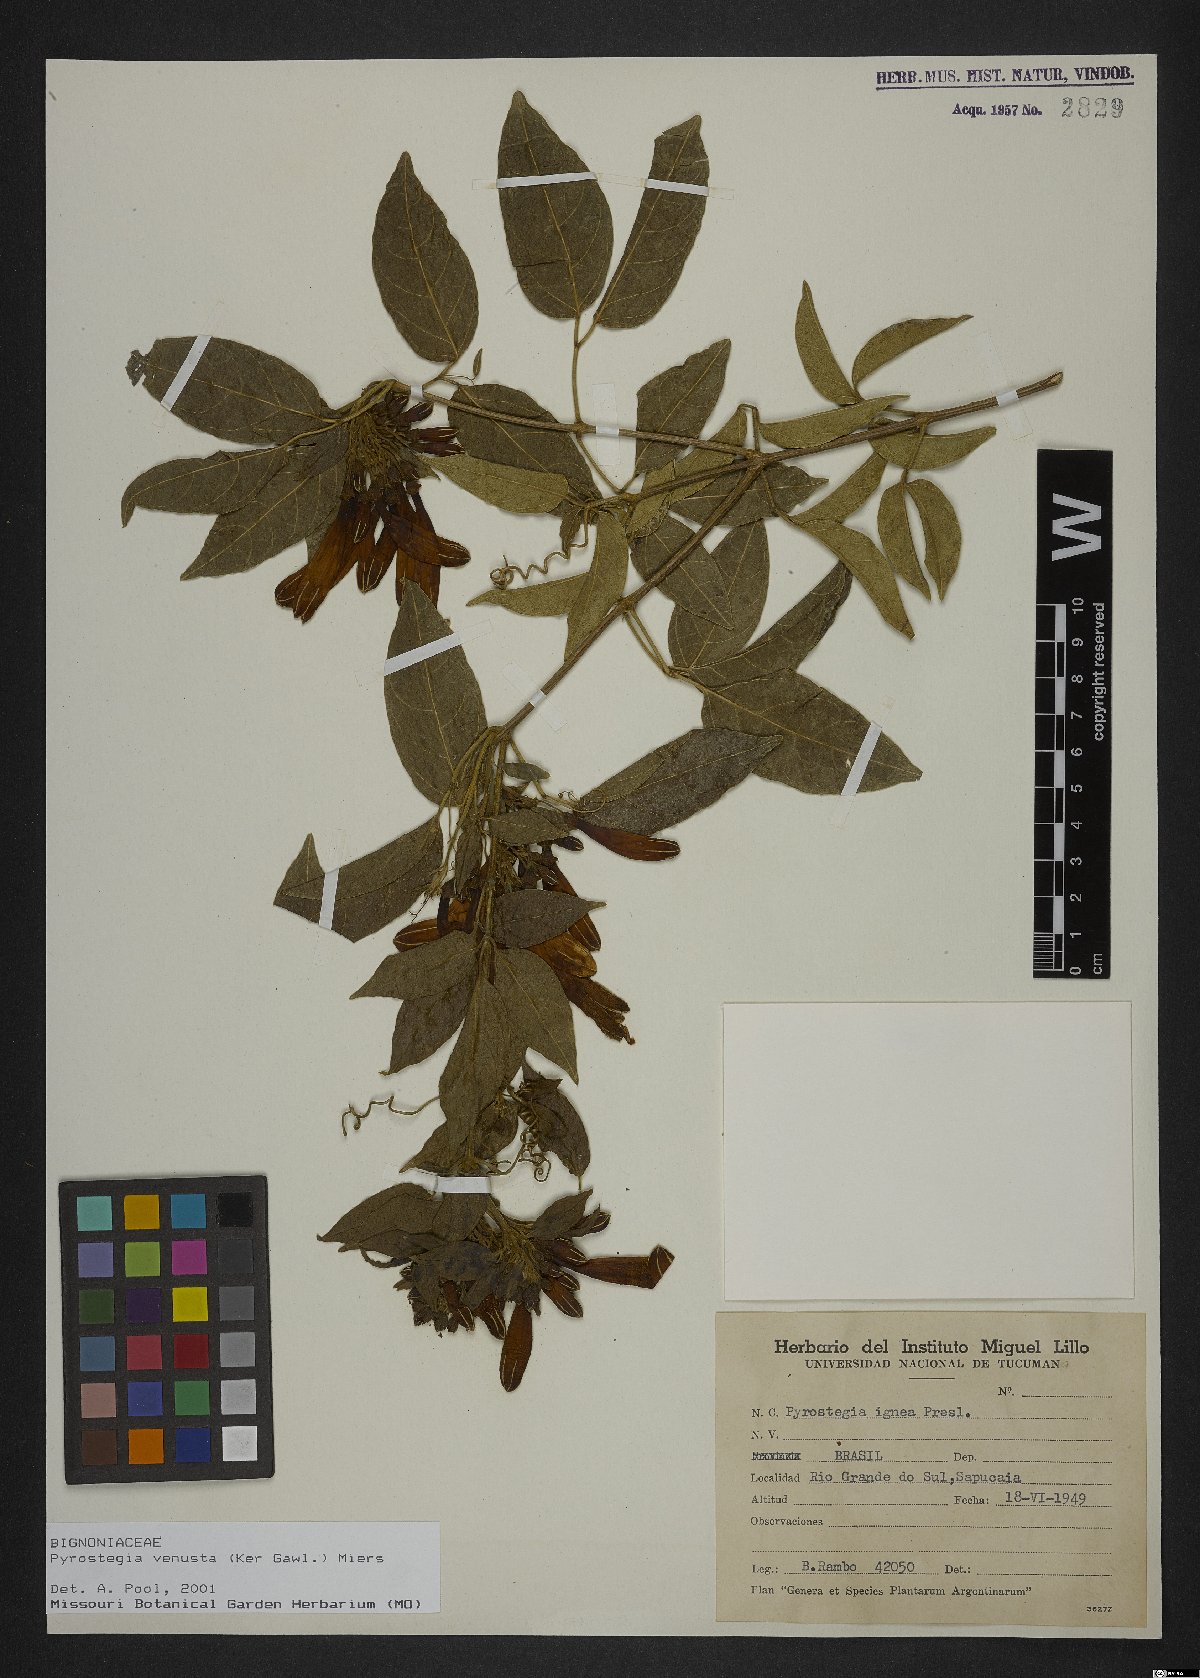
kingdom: Plantae
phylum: Tracheophyta
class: Magnoliopsida
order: Lamiales
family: Bignoniaceae
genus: Pyrostegia
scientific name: Pyrostegia venusta
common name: Flamevine
